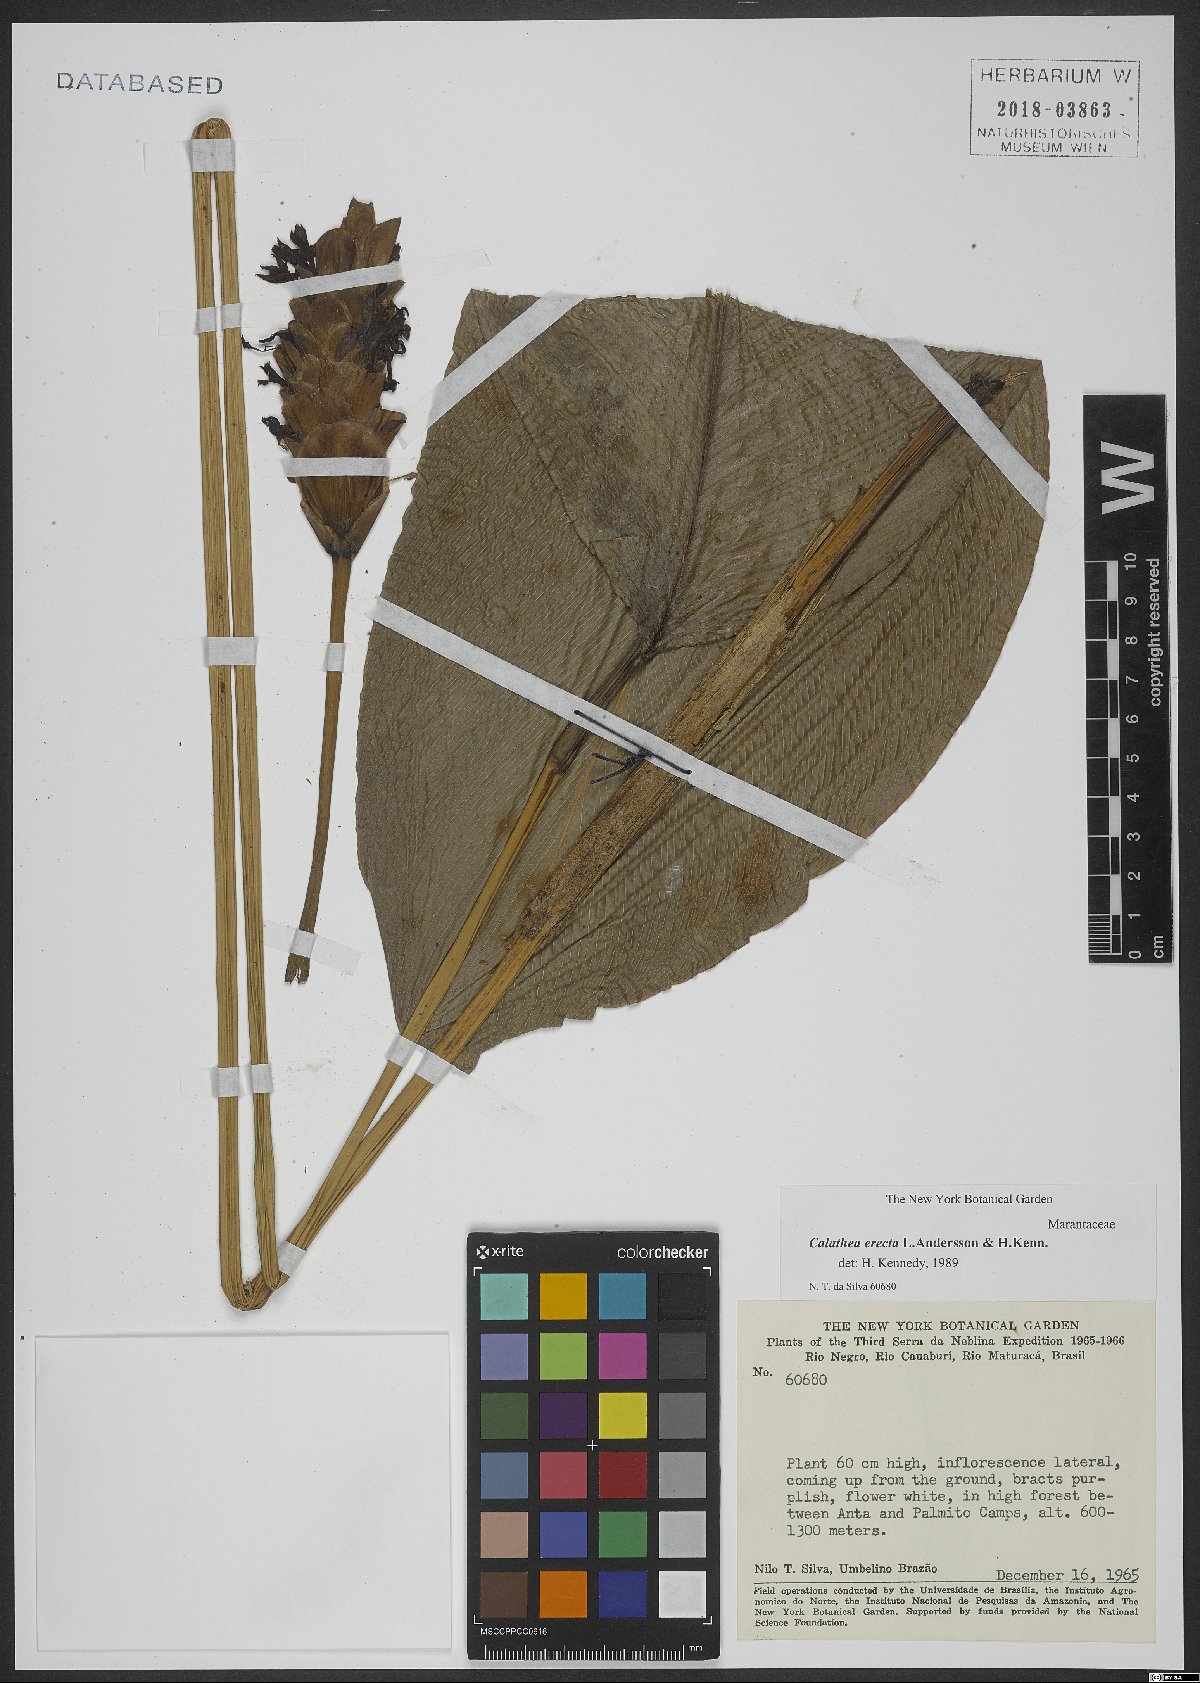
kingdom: Plantae
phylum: Tracheophyta
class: Liliopsida
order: Zingiberales
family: Marantaceae
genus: Goeppertia
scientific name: Goeppertia erecta
